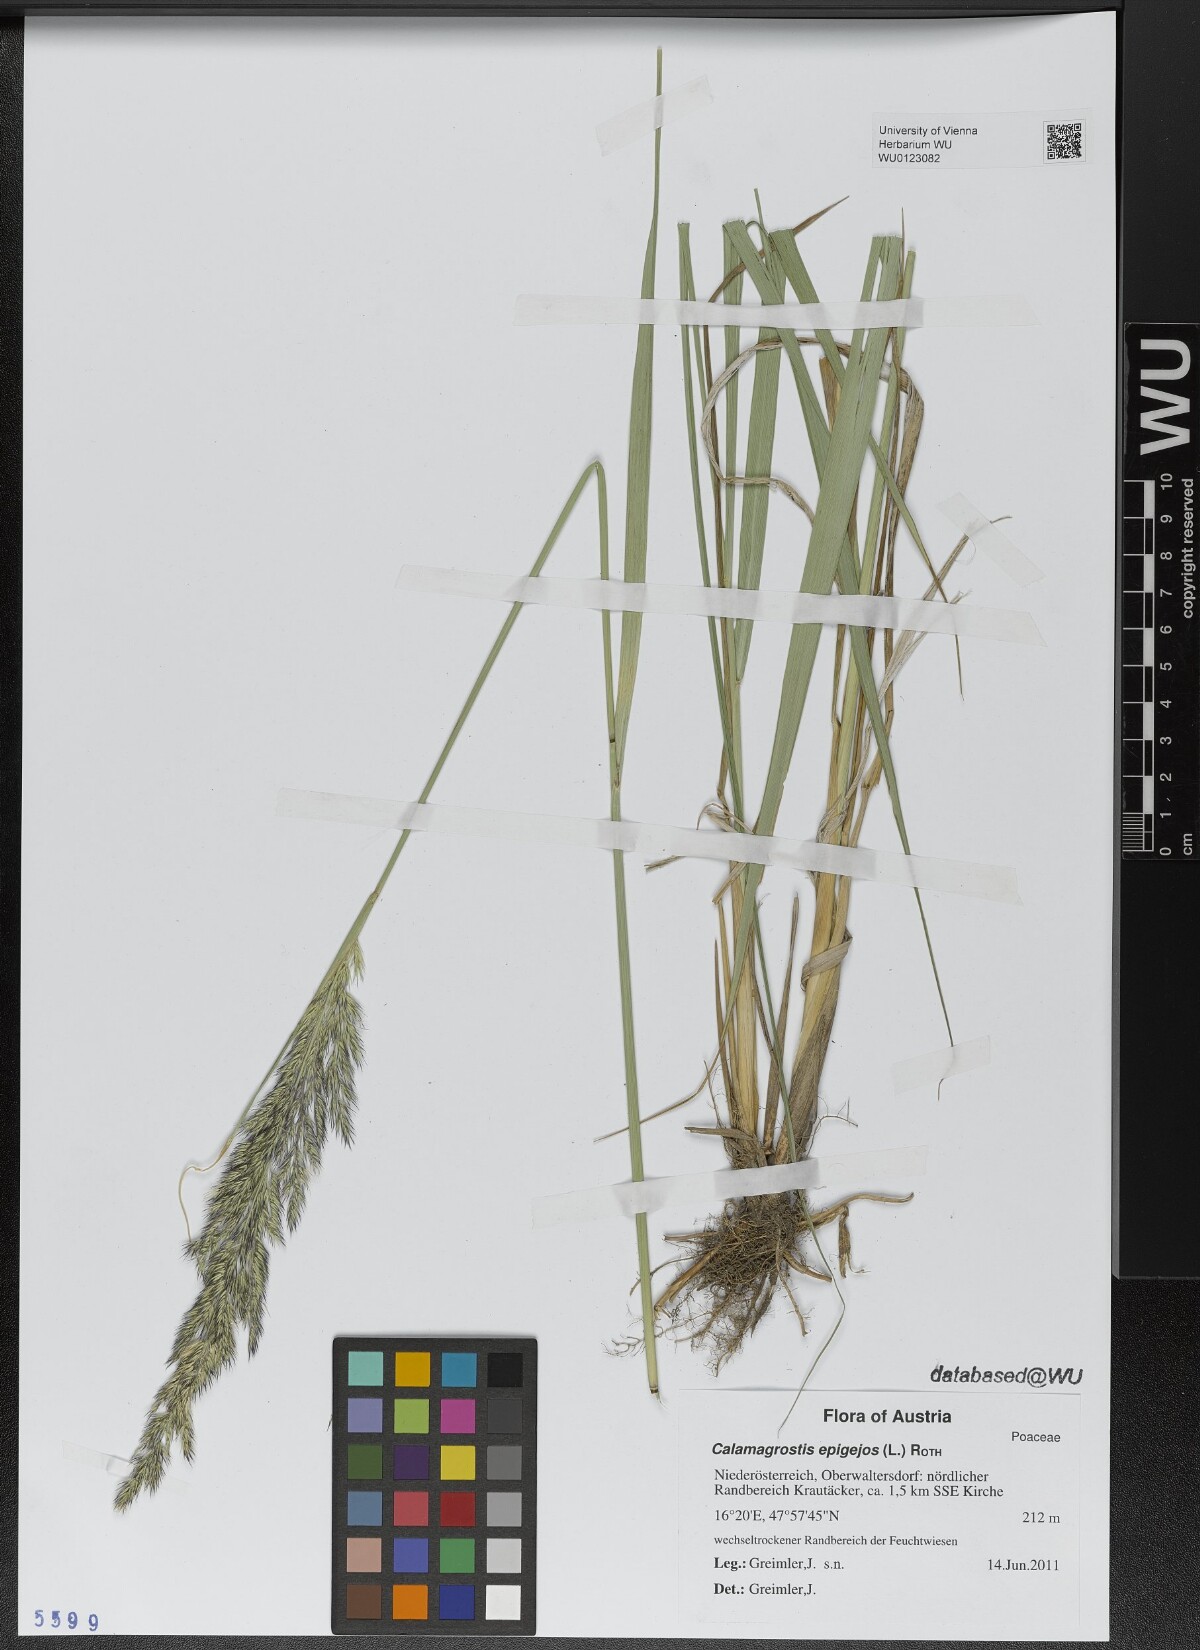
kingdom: Plantae
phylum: Tracheophyta
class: Liliopsida
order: Poales
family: Poaceae
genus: Calamagrostis
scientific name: Calamagrostis epigejos
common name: Wood small-reed
